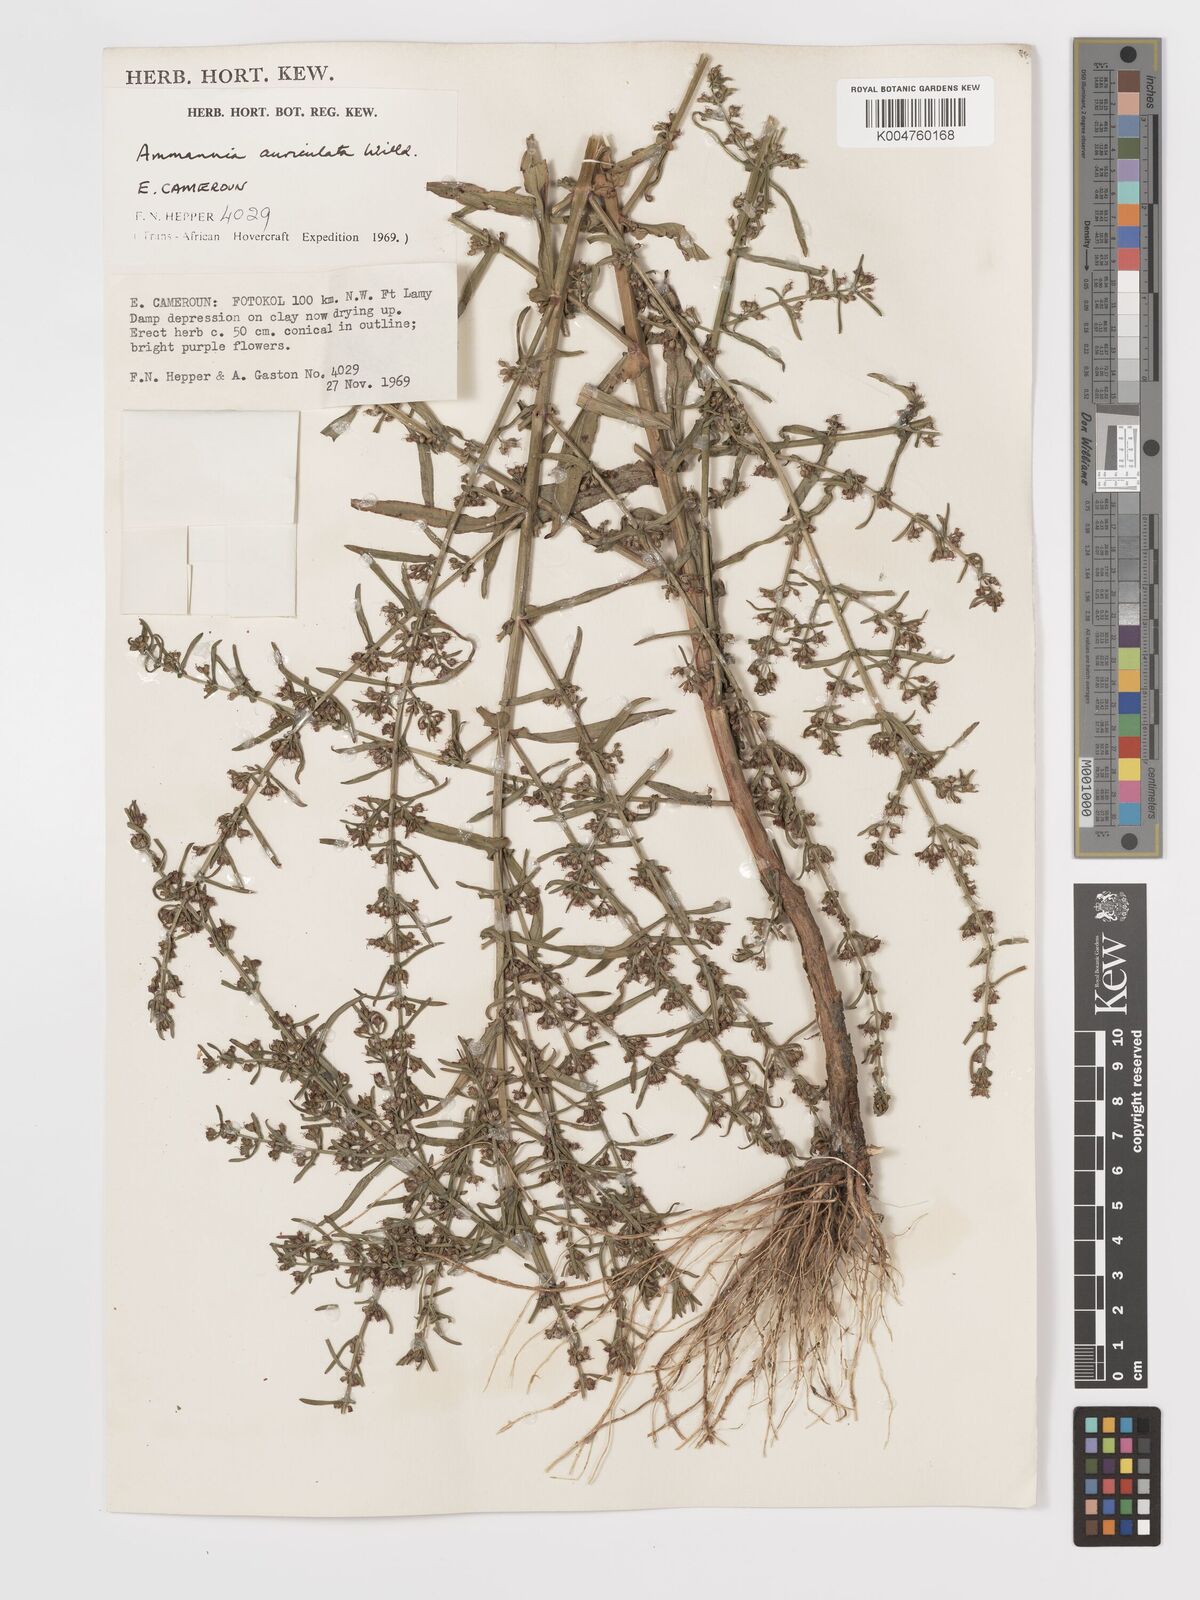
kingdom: Plantae
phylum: Tracheophyta
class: Magnoliopsida
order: Myrtales
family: Lythraceae
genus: Ammannia
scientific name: Ammannia auriculata
